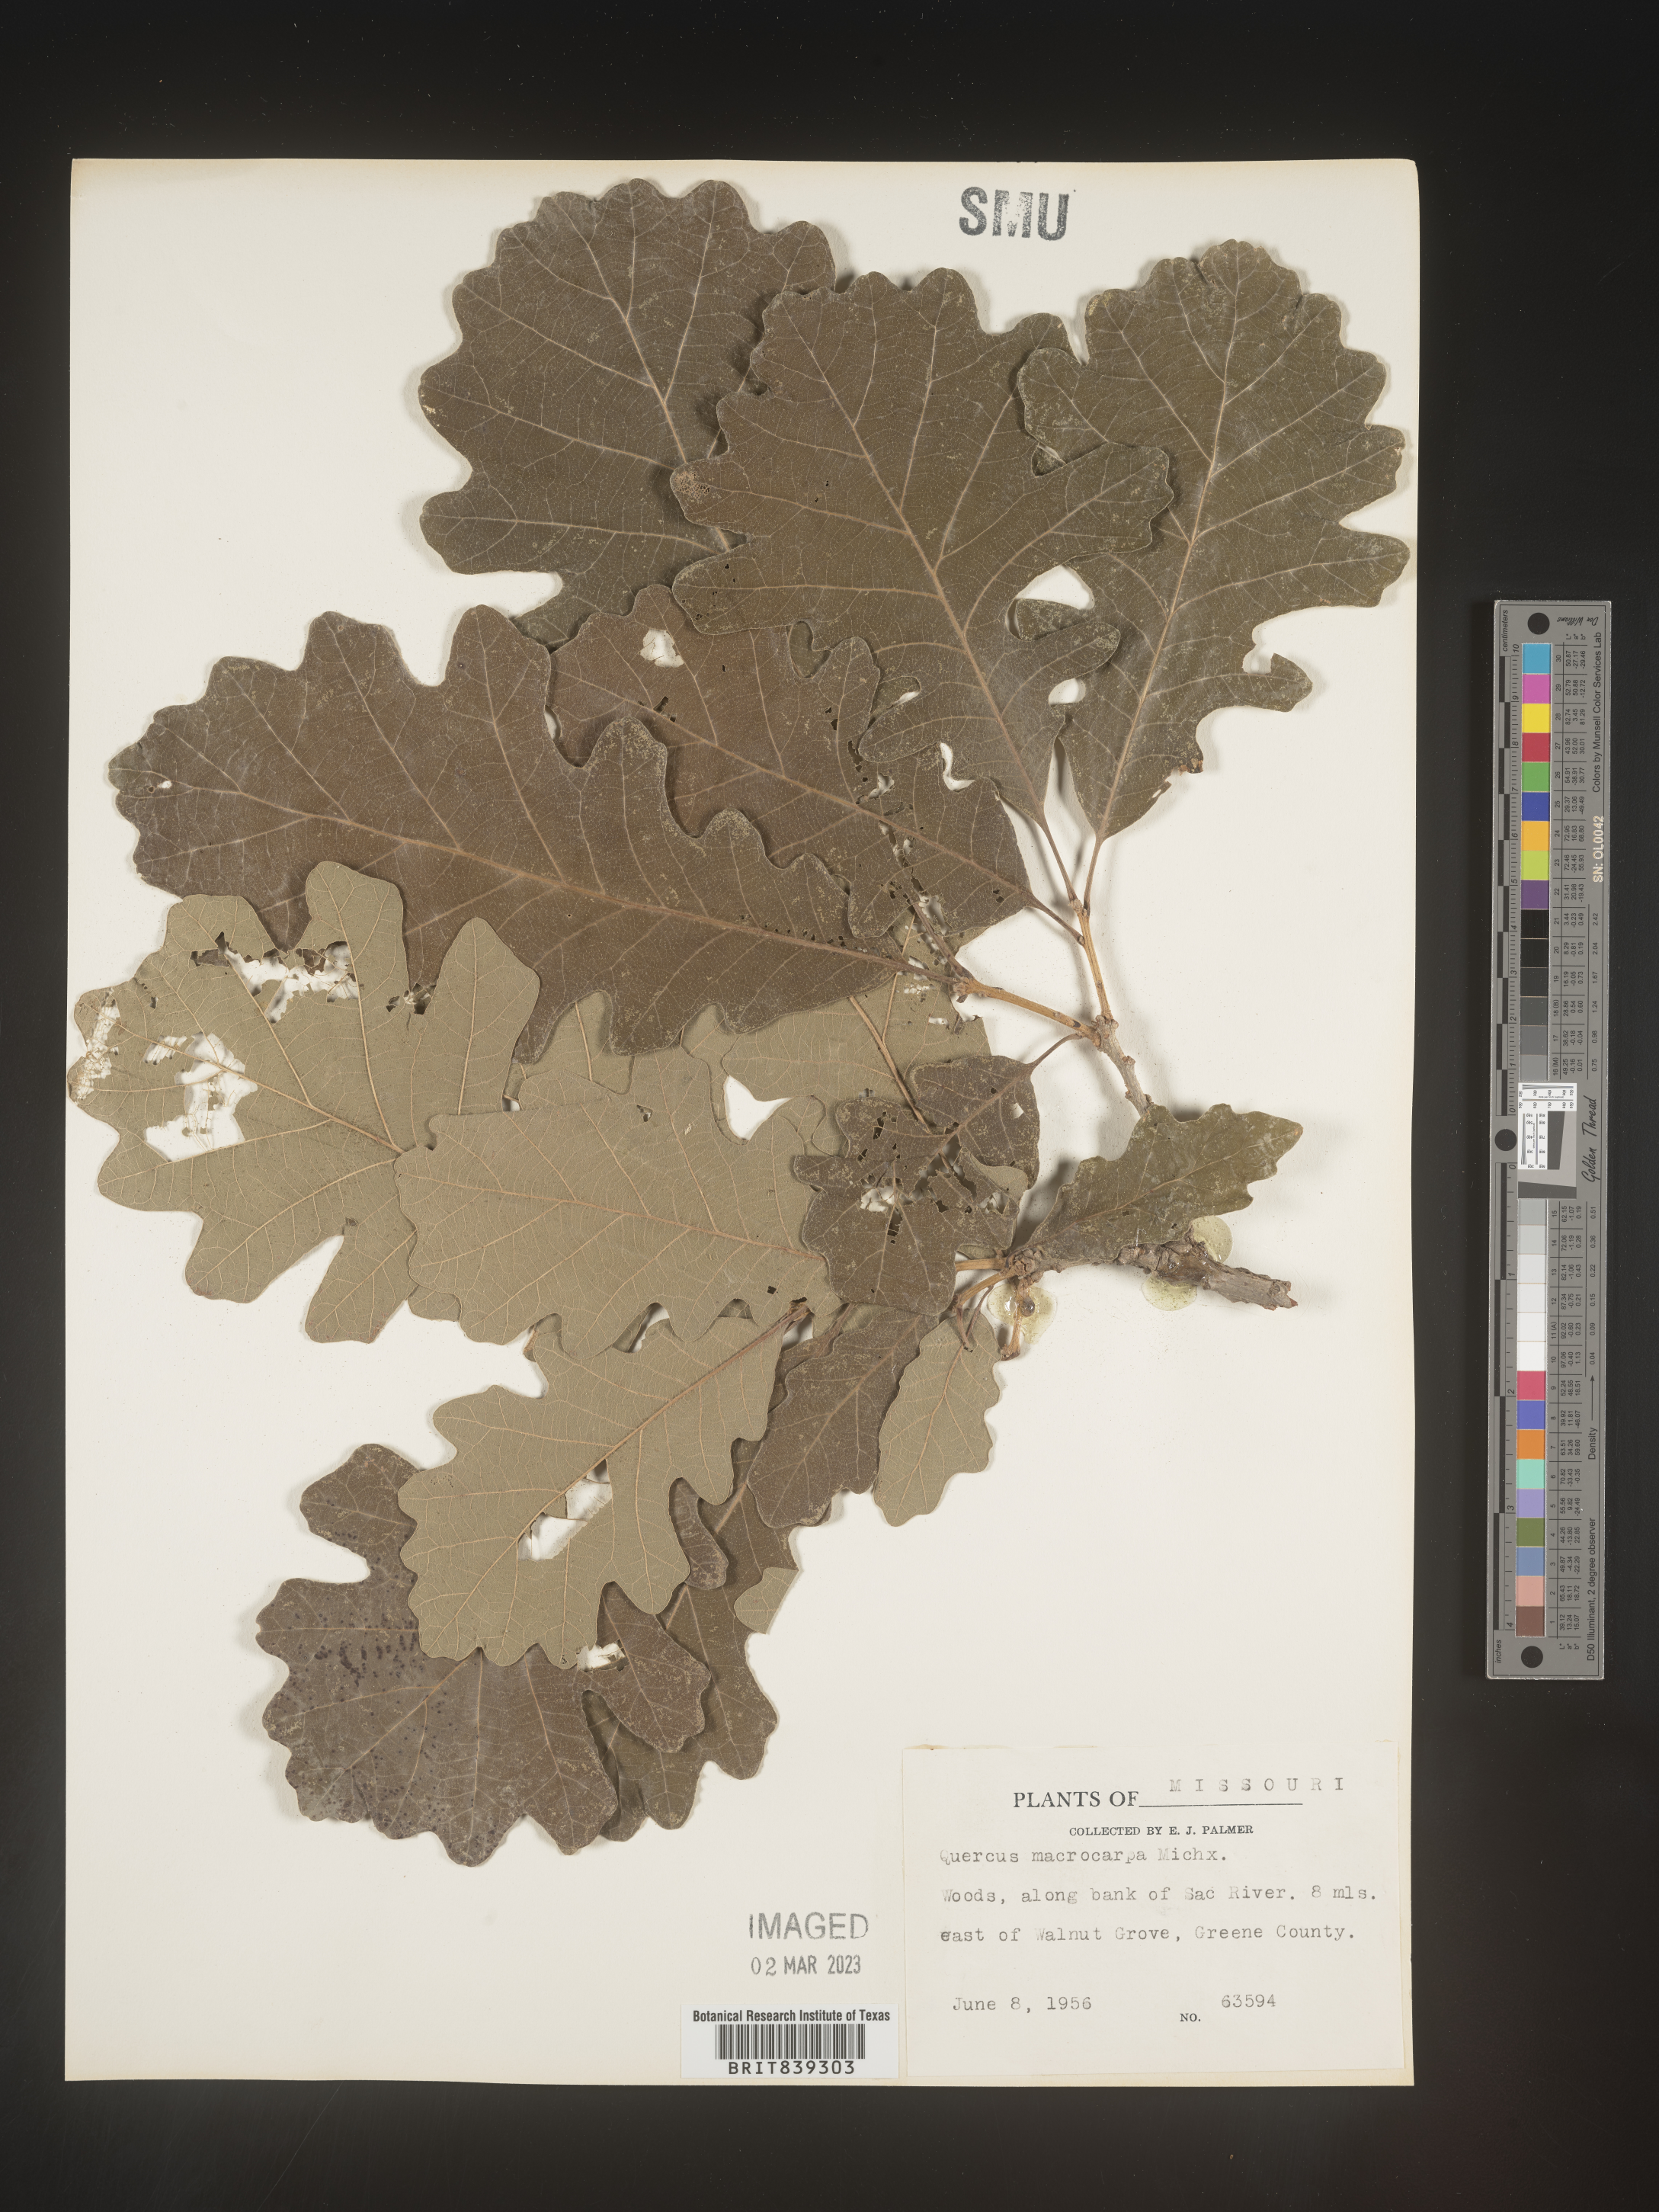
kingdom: Plantae
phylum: Tracheophyta
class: Magnoliopsida
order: Fagales
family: Fagaceae
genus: Quercus
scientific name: Quercus macrocarpa
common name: Bur oak
